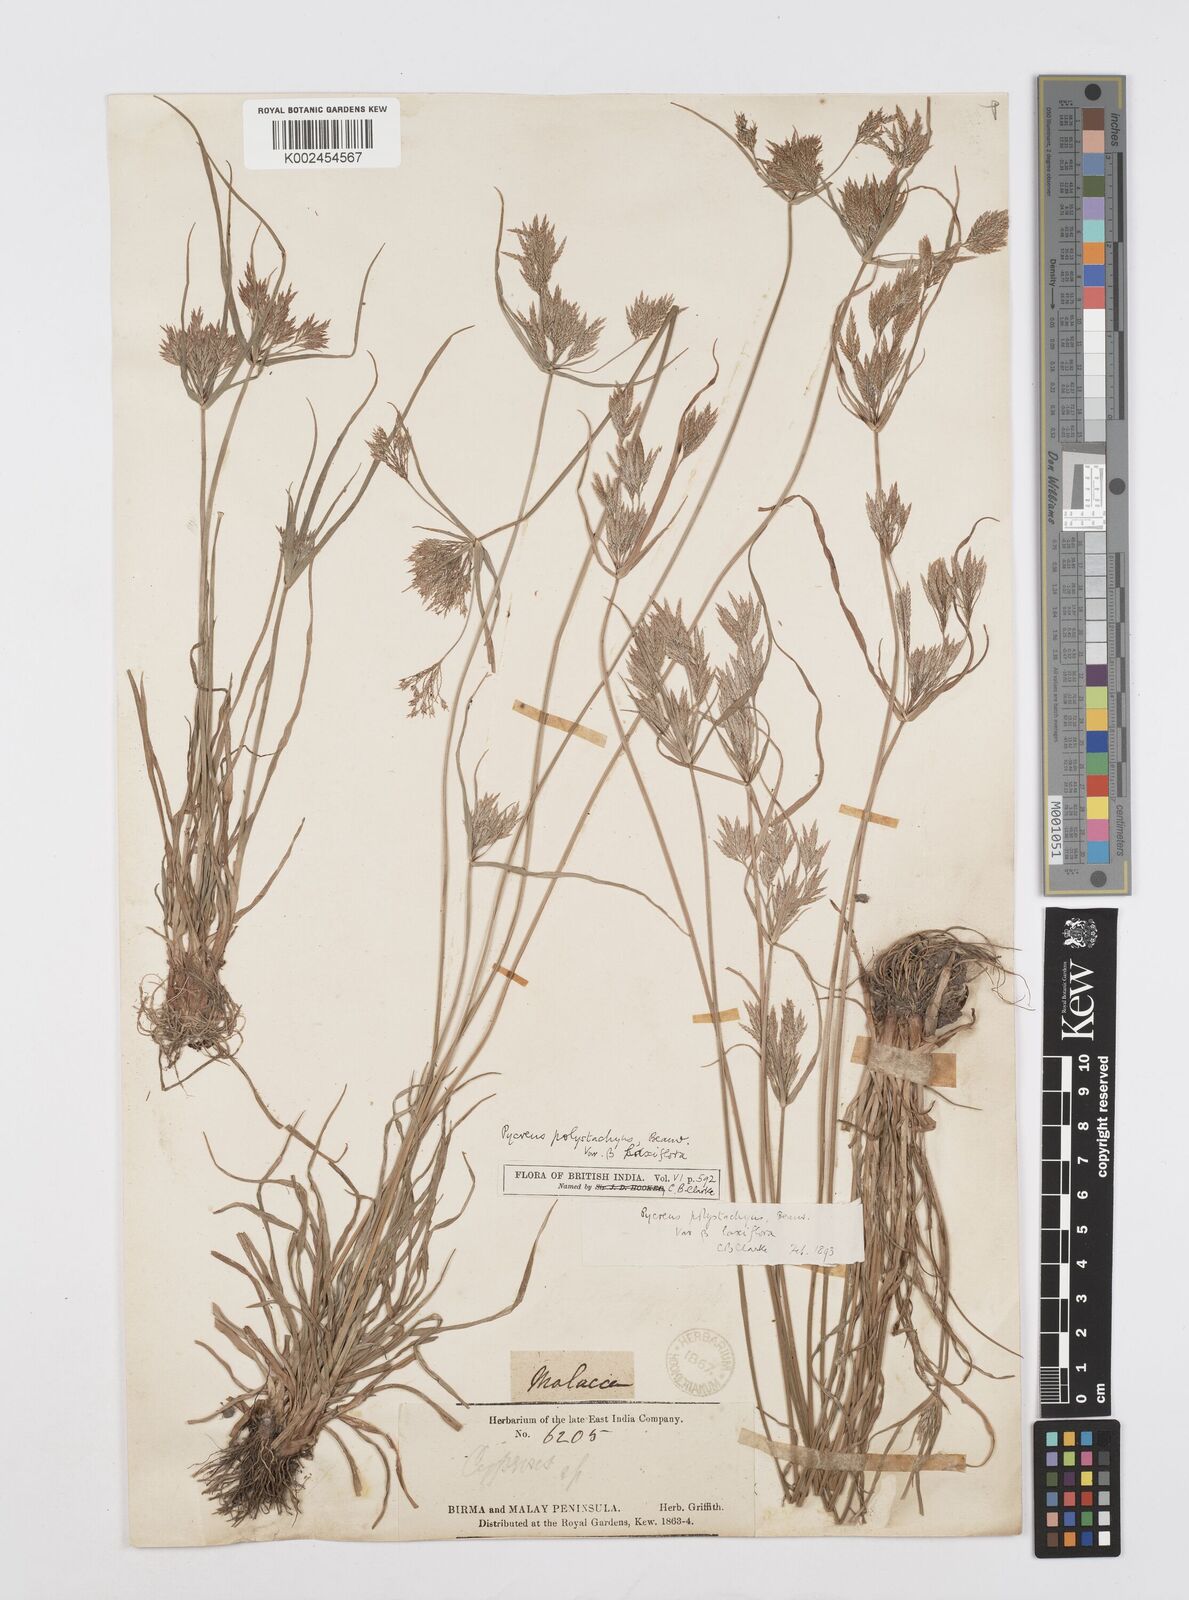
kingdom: Plantae
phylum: Tracheophyta
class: Liliopsida
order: Poales
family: Cyperaceae
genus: Cyperus
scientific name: Cyperus polystachyos
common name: Bunchy flat sedge
